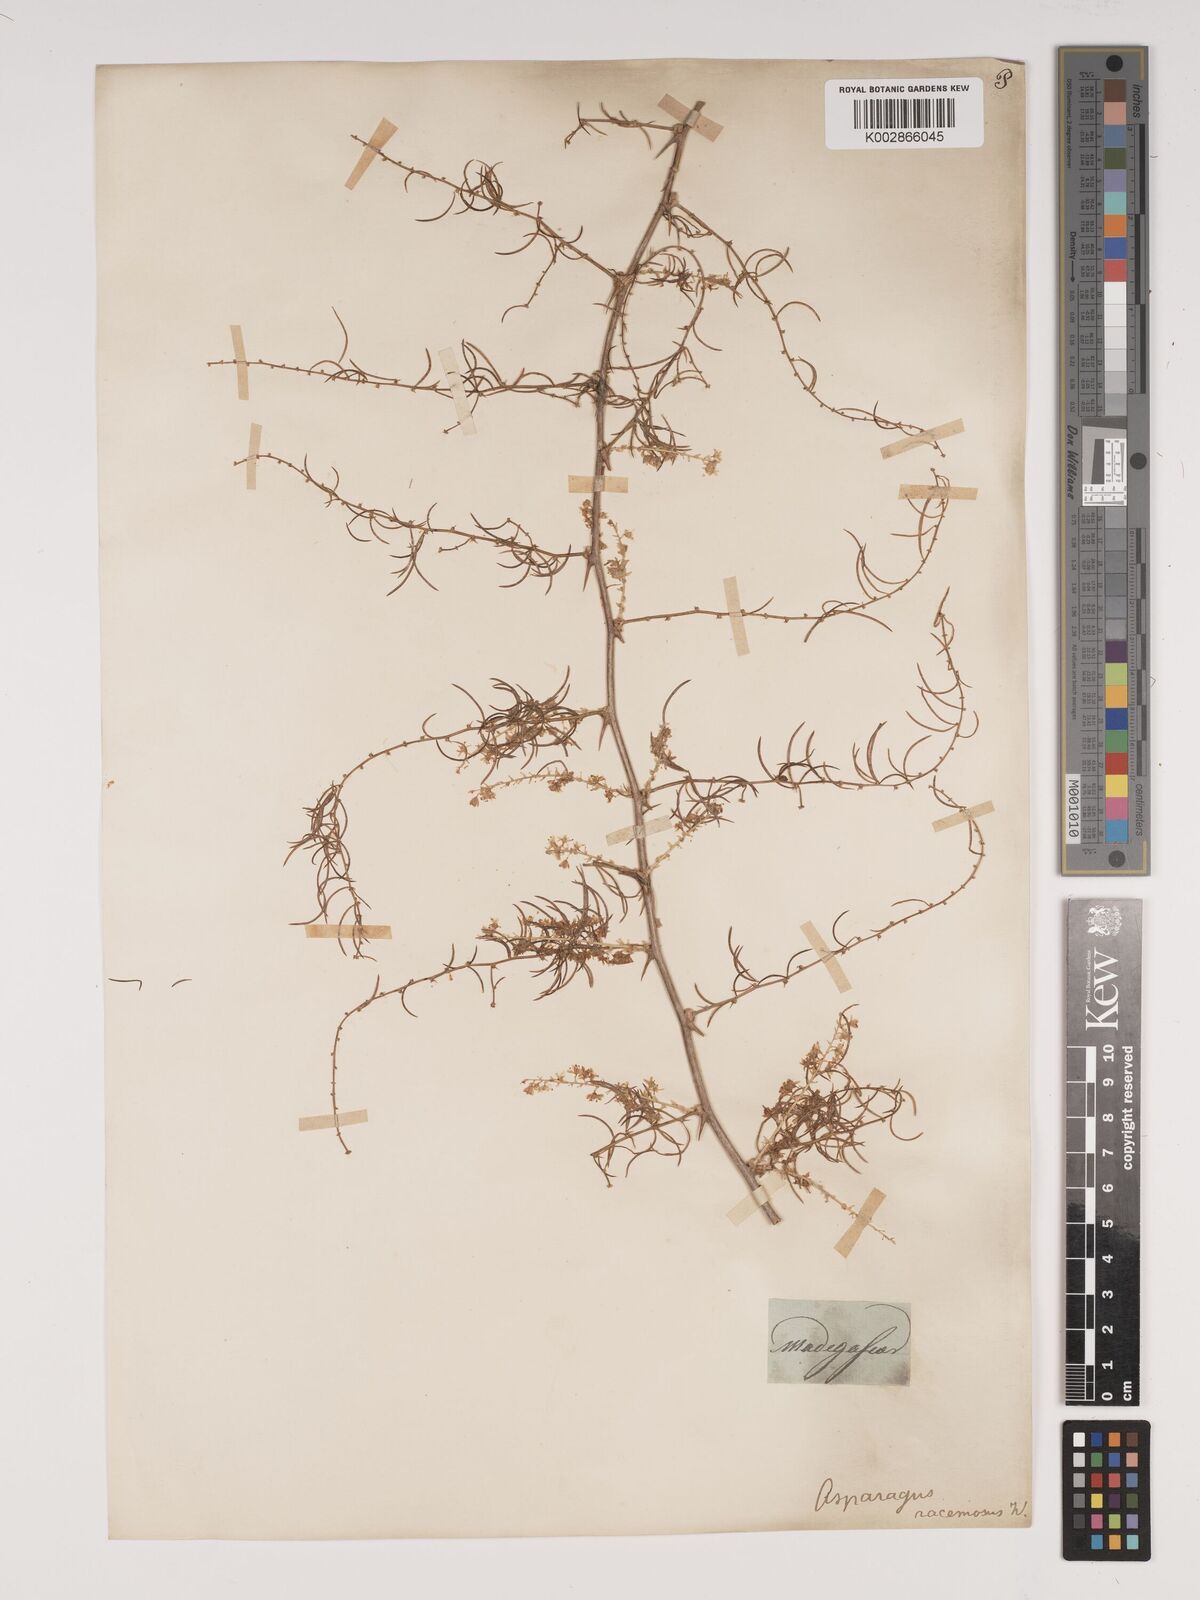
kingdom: Plantae
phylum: Tracheophyta
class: Liliopsida
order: Asparagales
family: Asparagaceae
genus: Asparagus
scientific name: Asparagus racemosus
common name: Asparagus-fern
